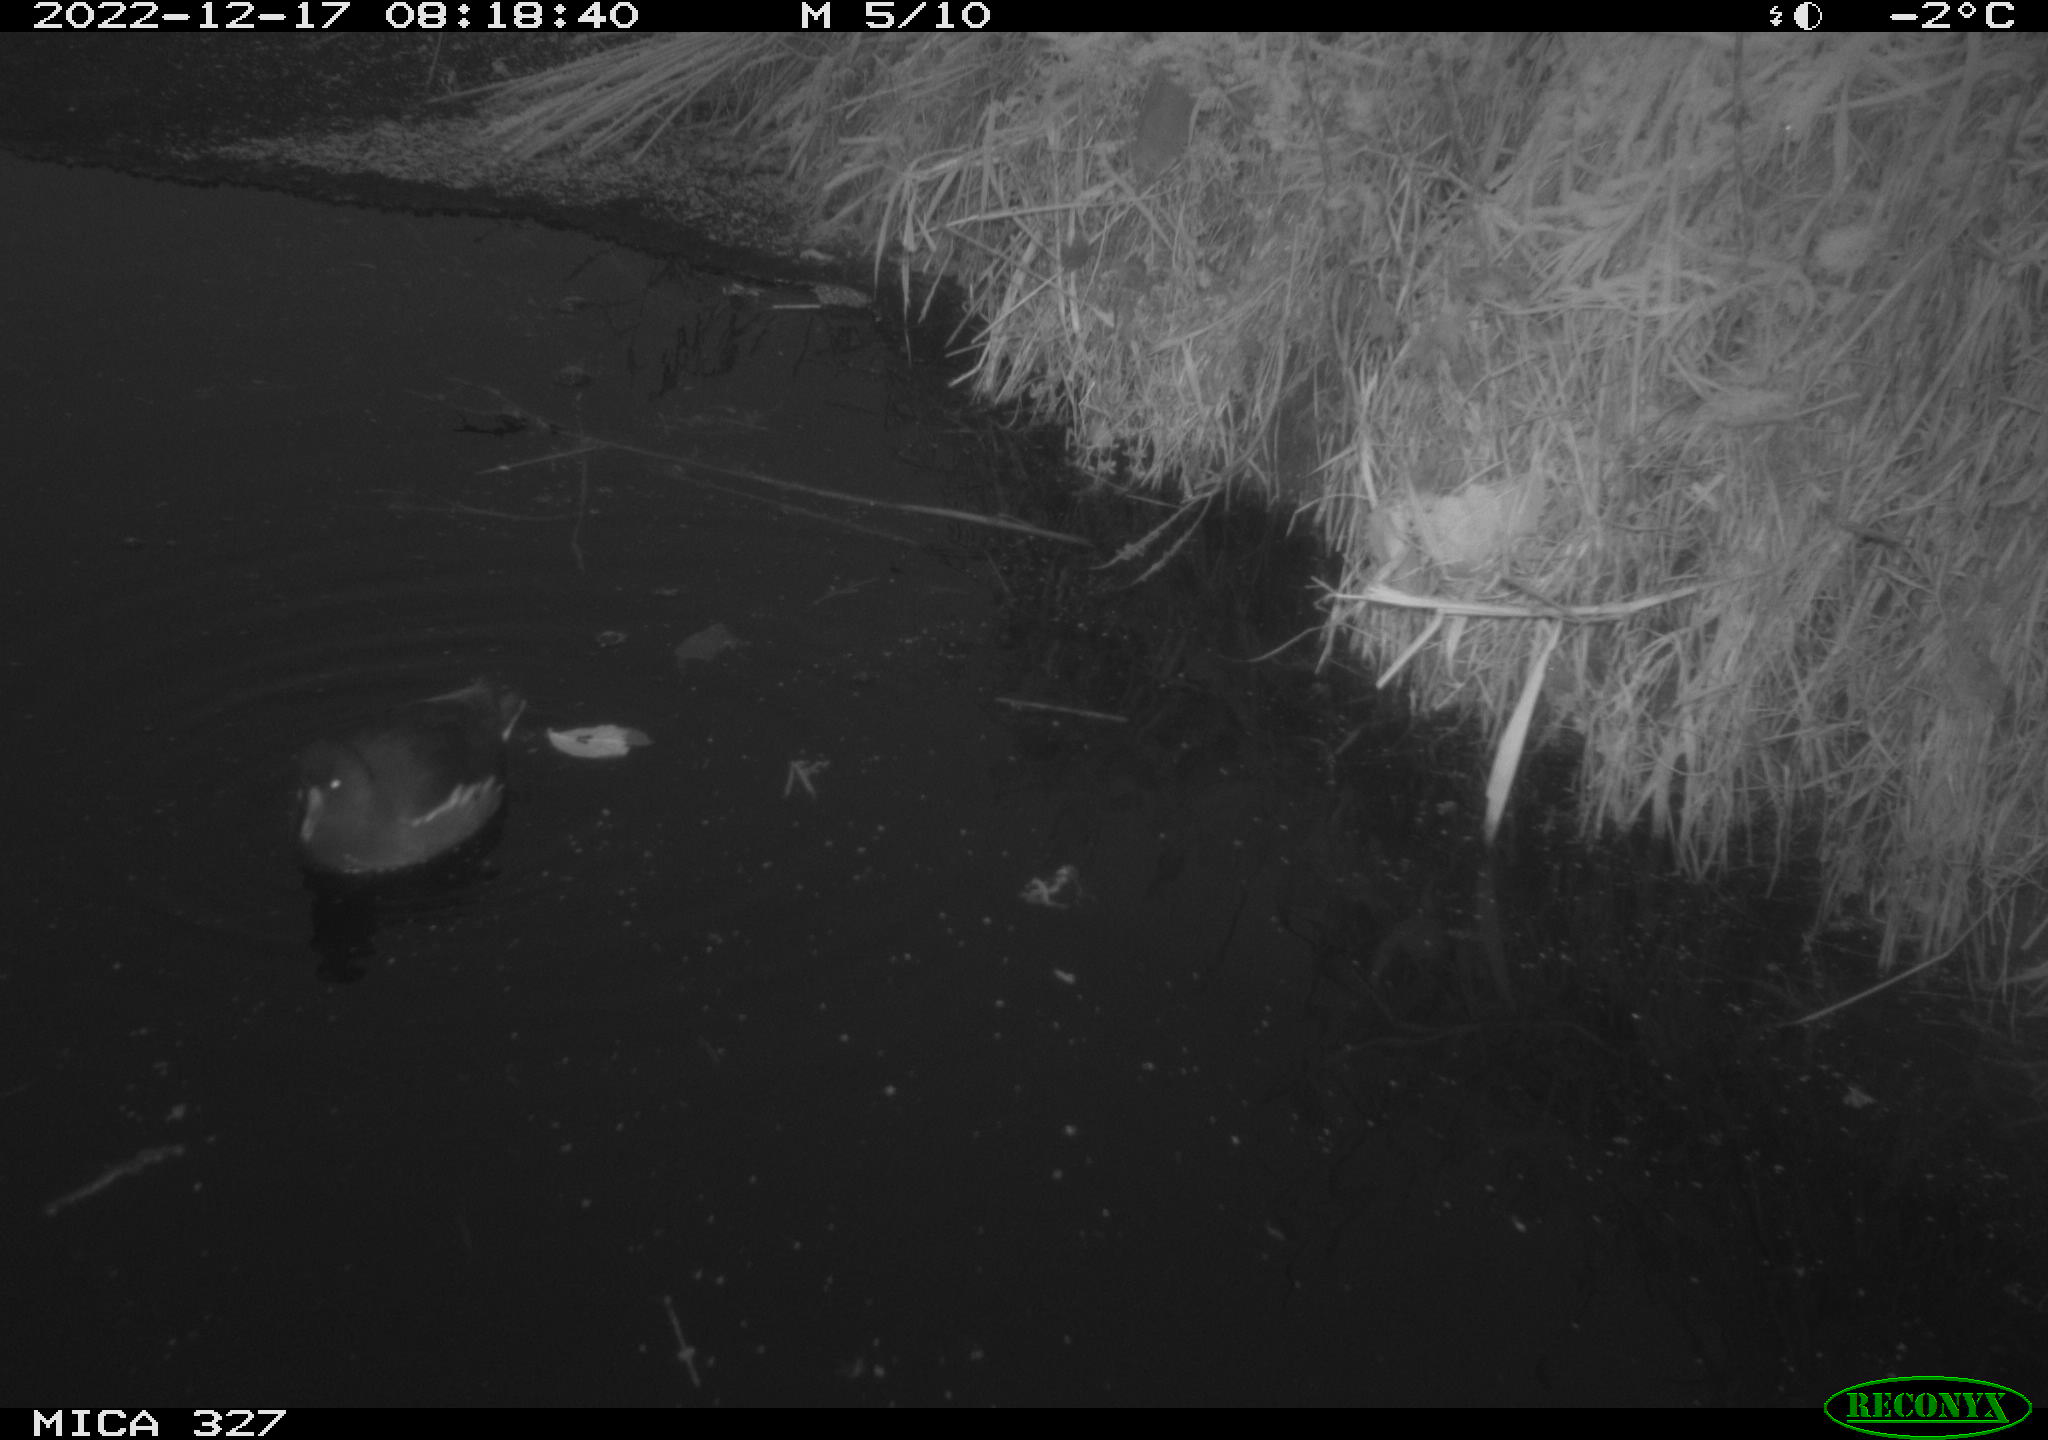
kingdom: Animalia
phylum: Chordata
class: Aves
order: Gruiformes
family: Rallidae
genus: Gallinula
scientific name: Gallinula chloropus
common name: Common moorhen
